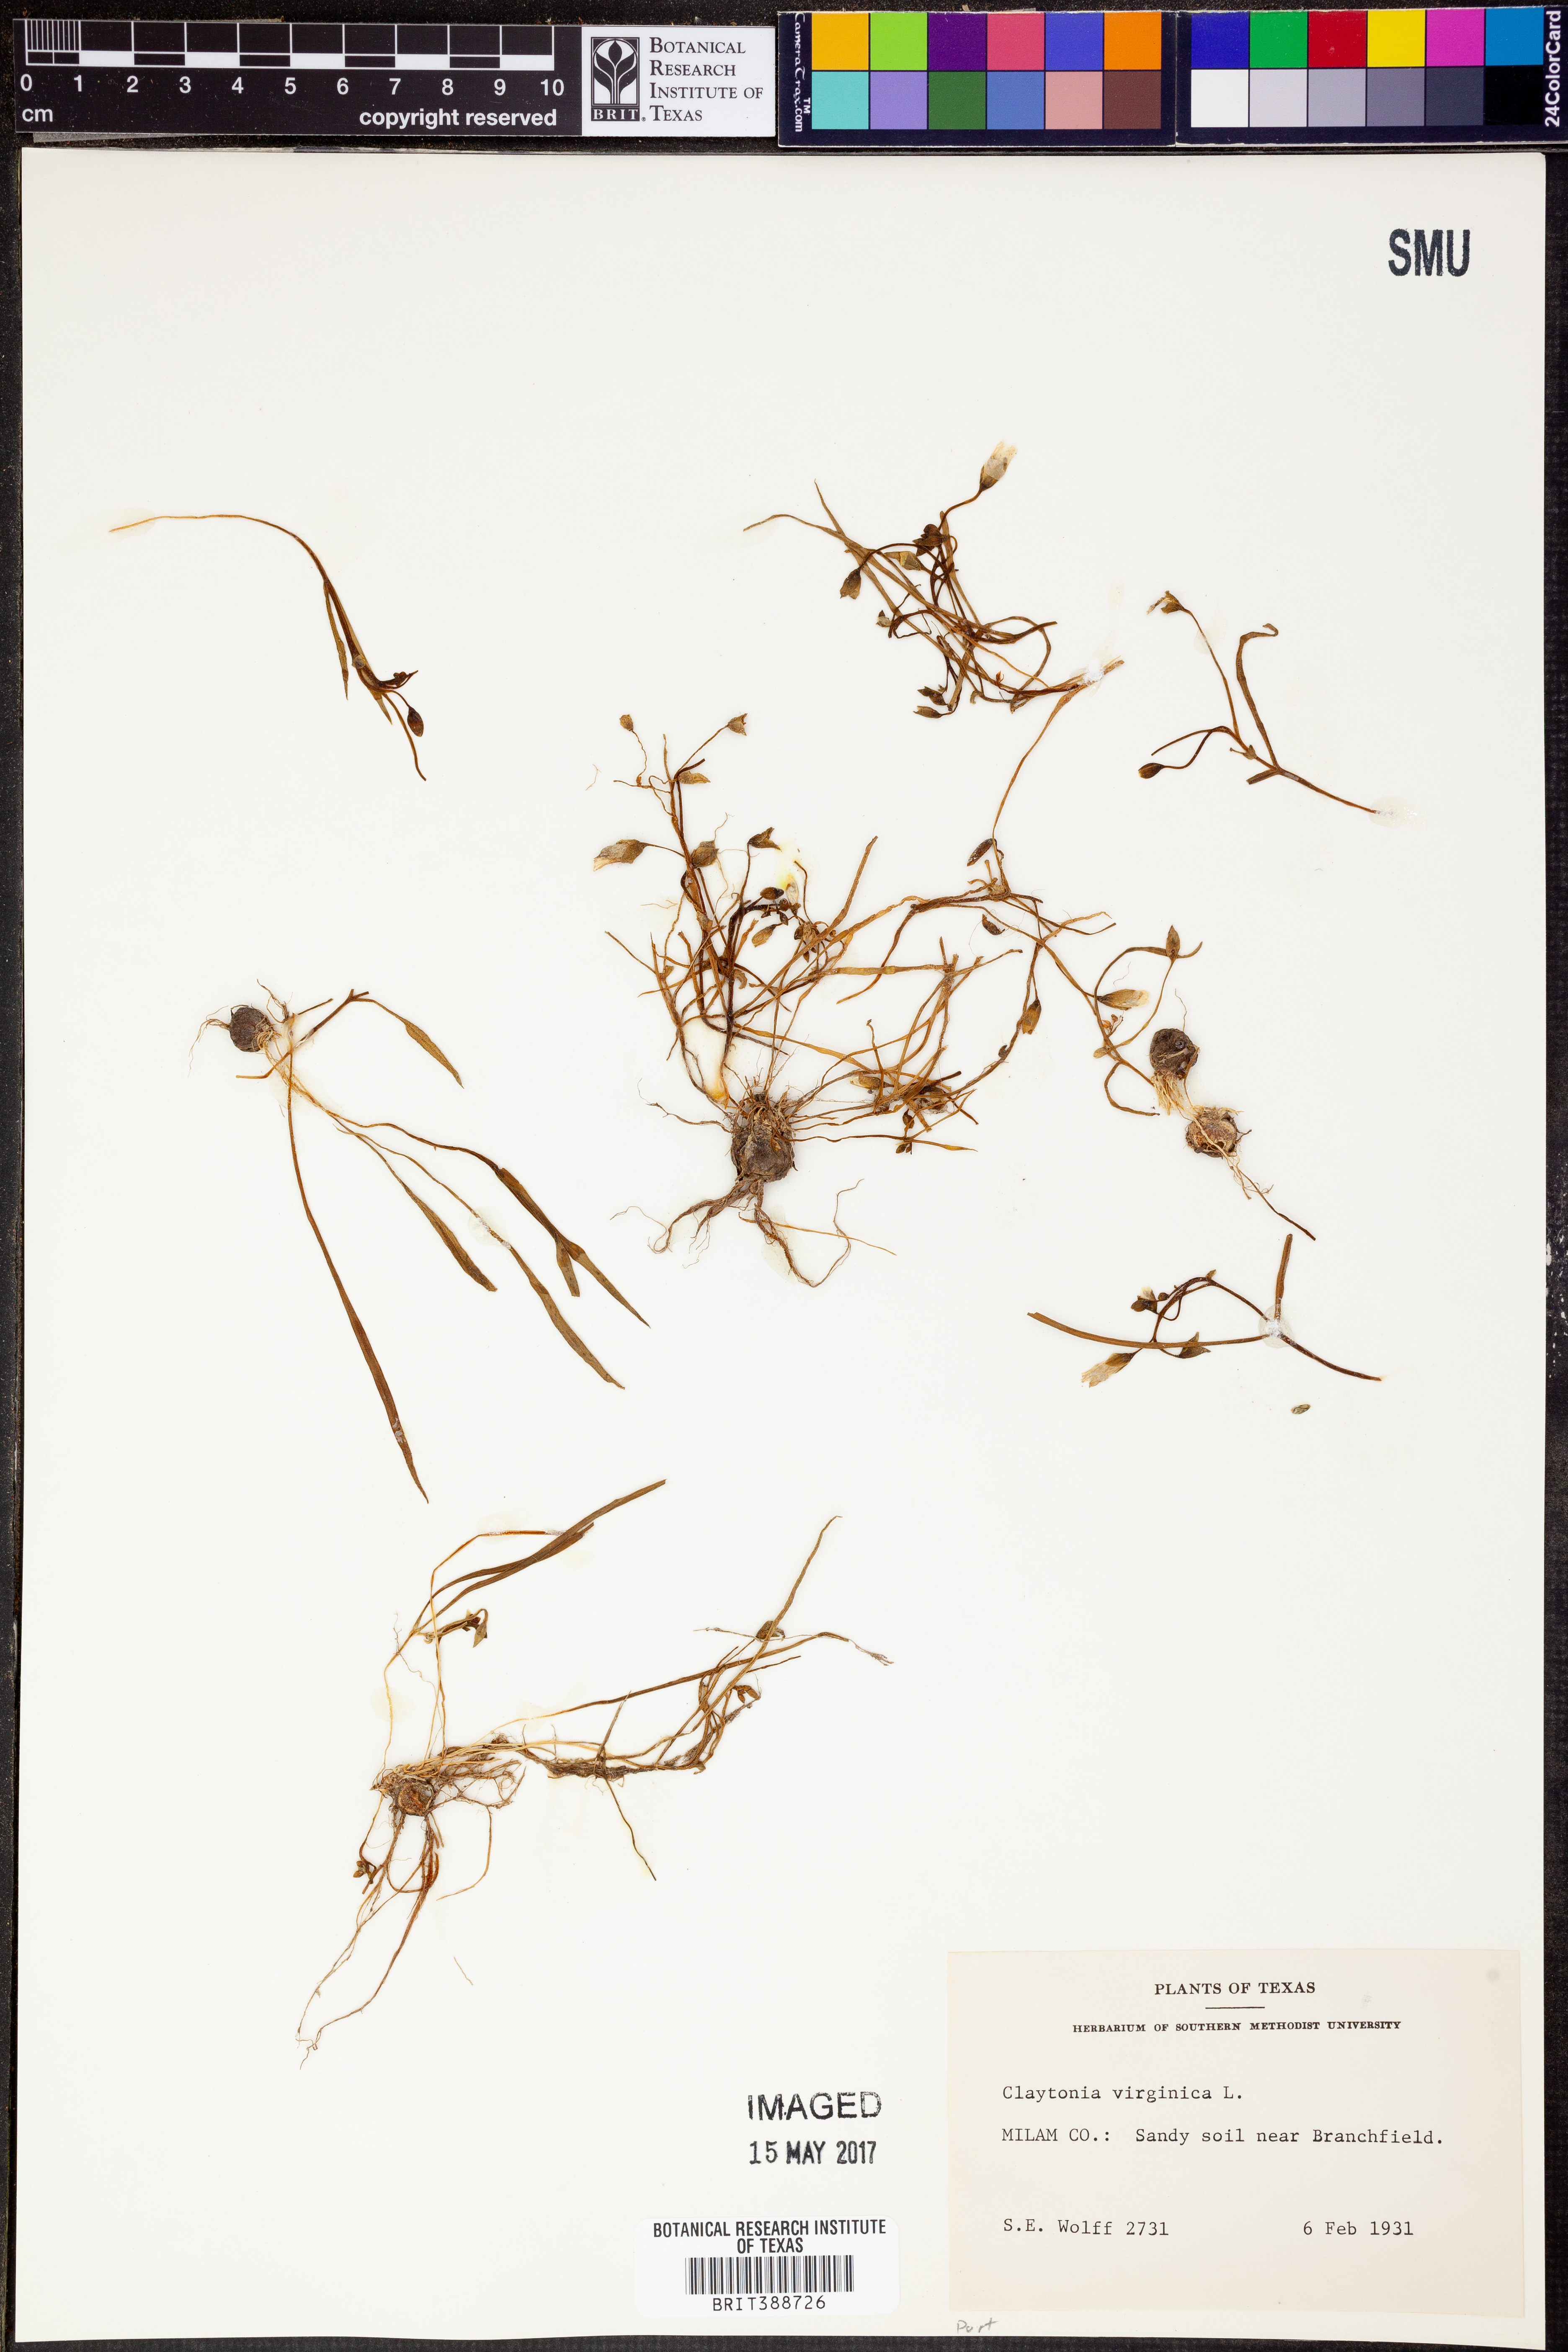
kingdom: Plantae
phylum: Tracheophyta
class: Magnoliopsida
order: Caryophyllales
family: Montiaceae
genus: Claytonia
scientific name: Claytonia virginica
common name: Virginia springbeauty
